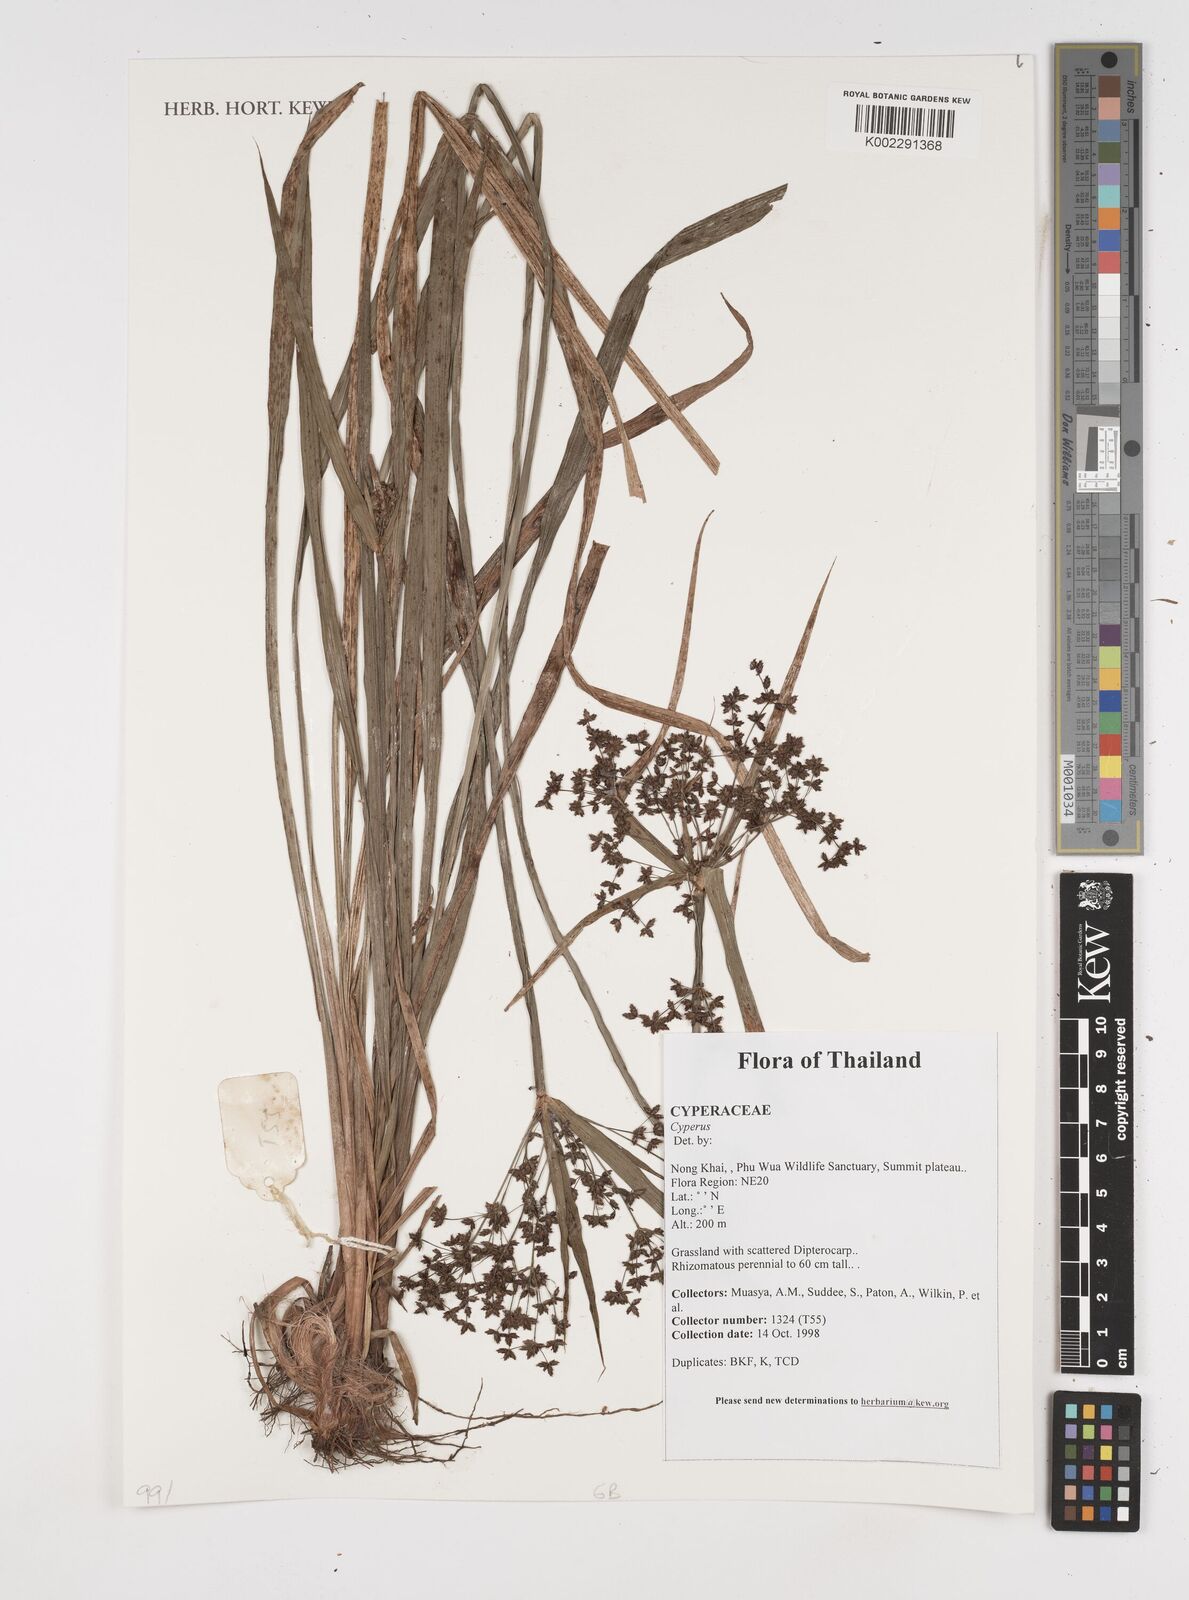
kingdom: Plantae
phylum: Tracheophyta
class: Liliopsida
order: Poales
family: Cyperaceae
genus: Cyperus
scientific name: Cyperus
